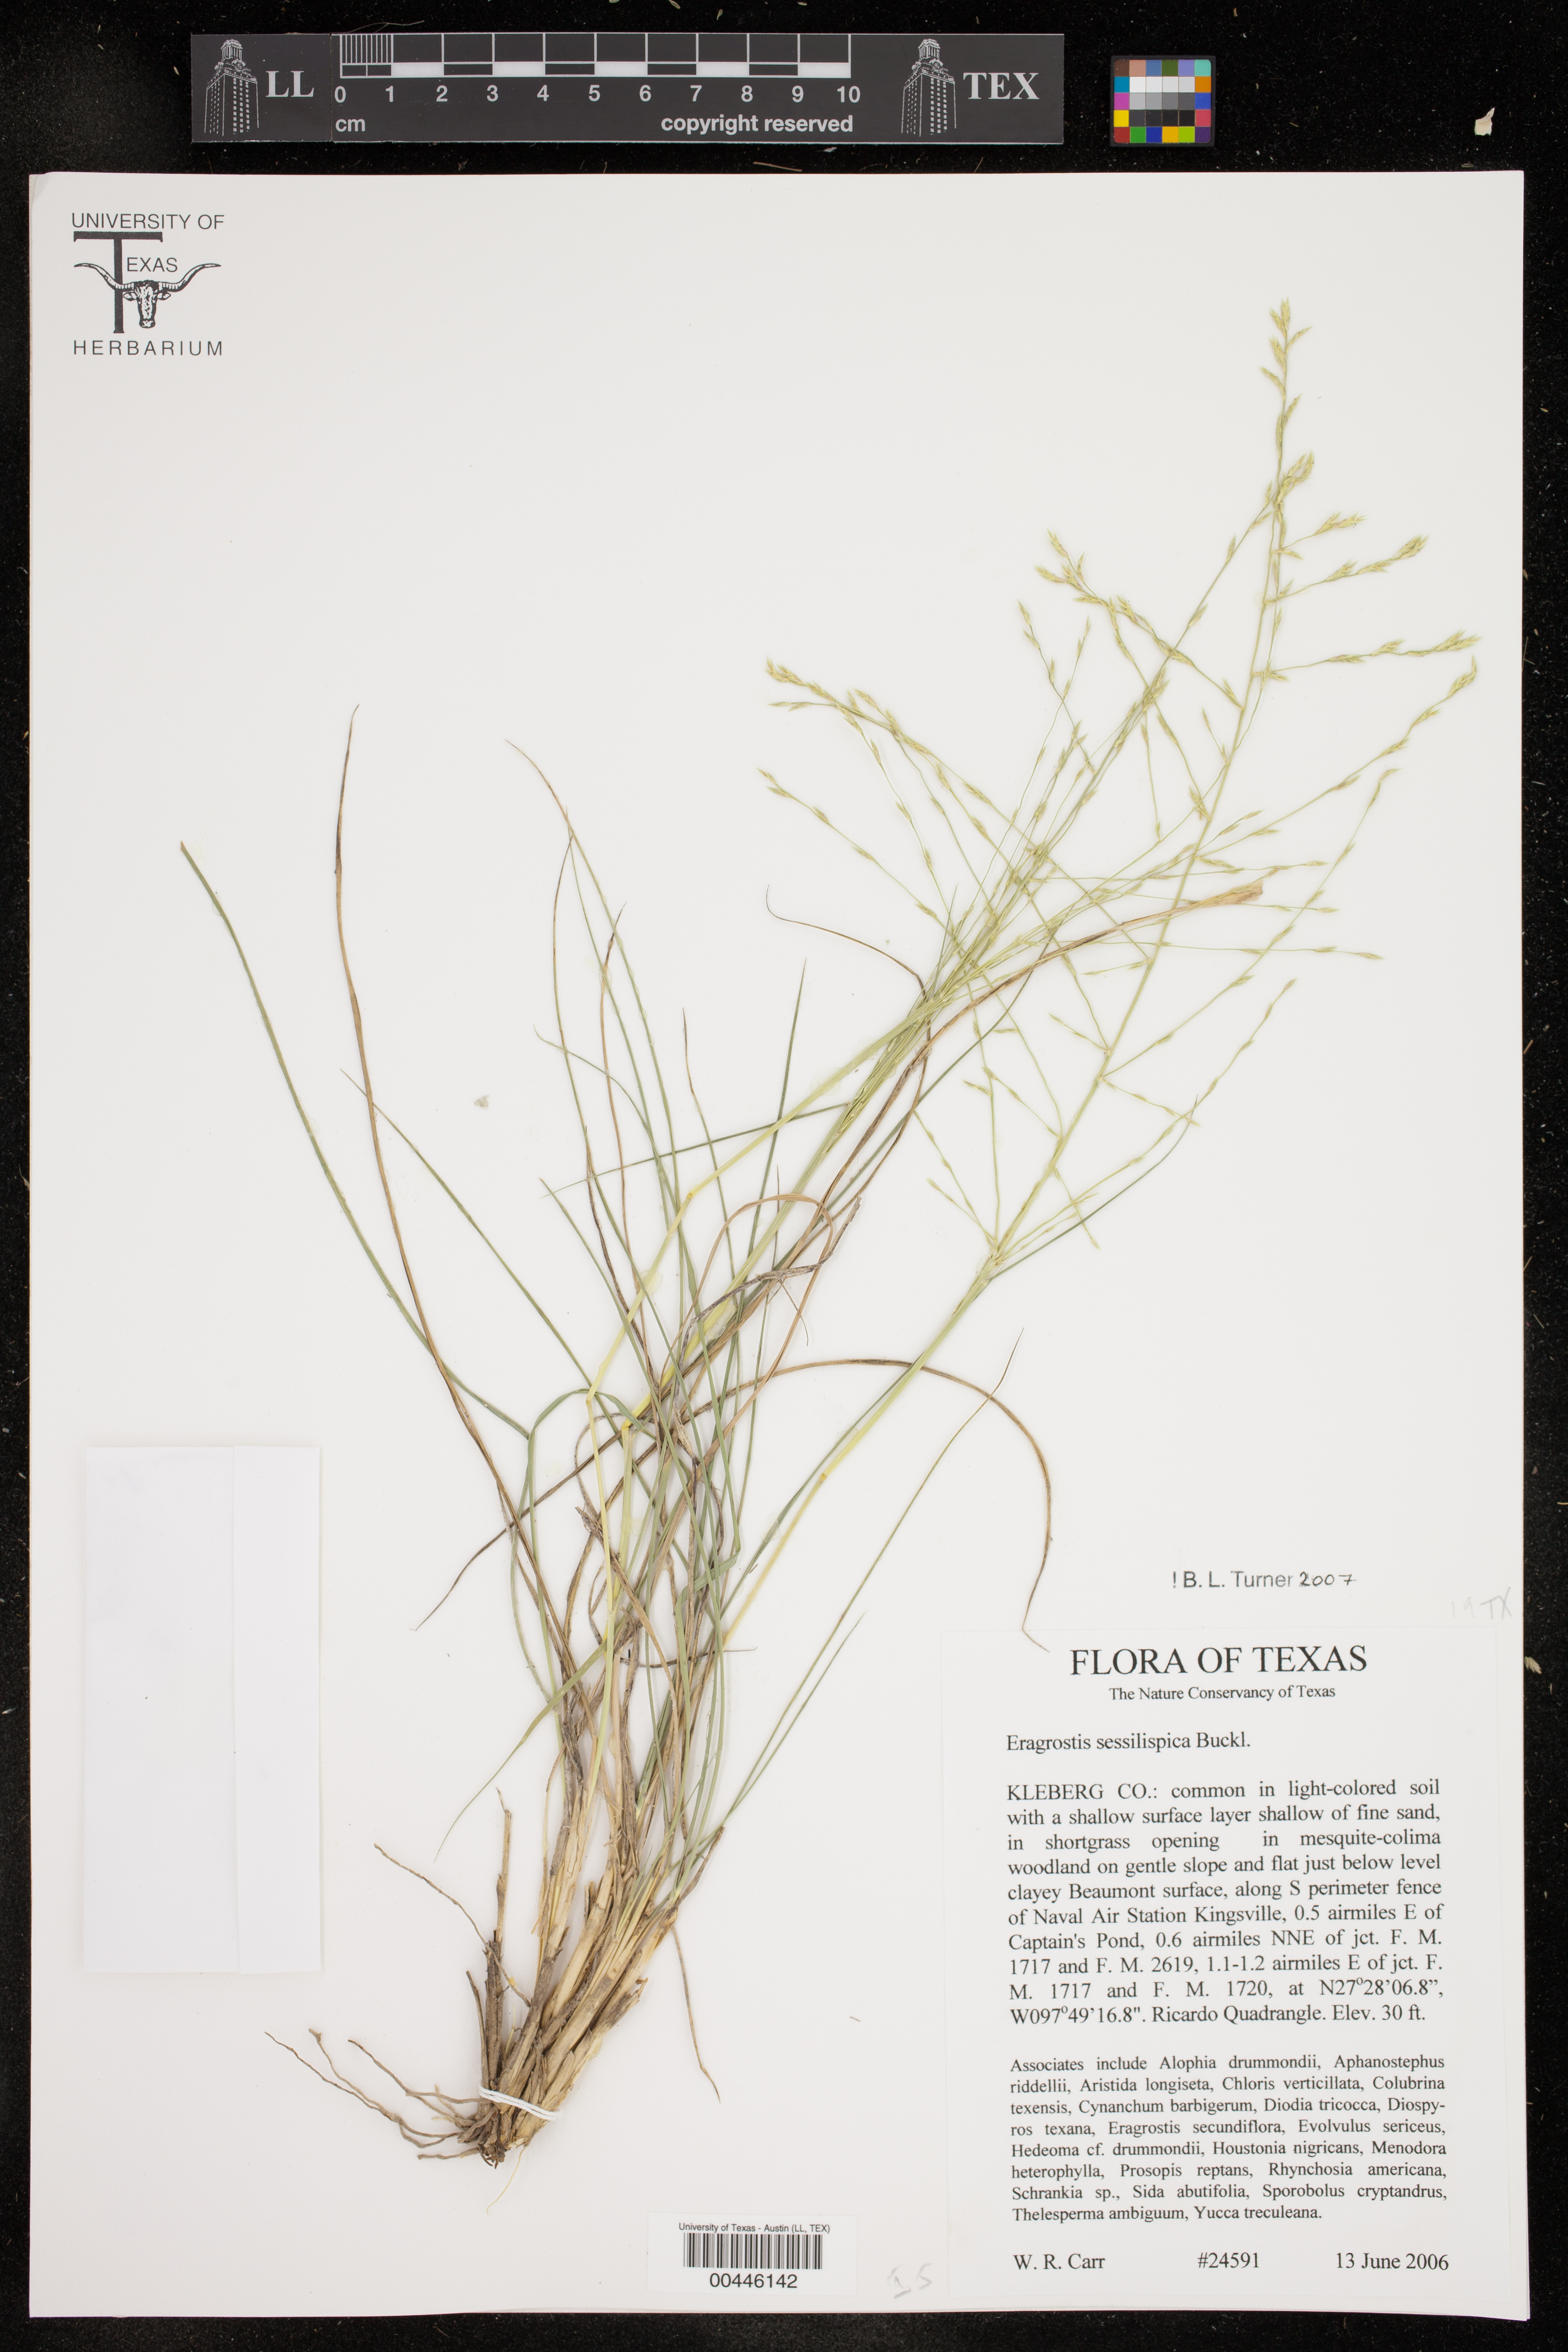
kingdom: Plantae
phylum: Tracheophyta
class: Liliopsida
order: Poales
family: Poaceae
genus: Eragrostis
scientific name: Eragrostis sessilispica
